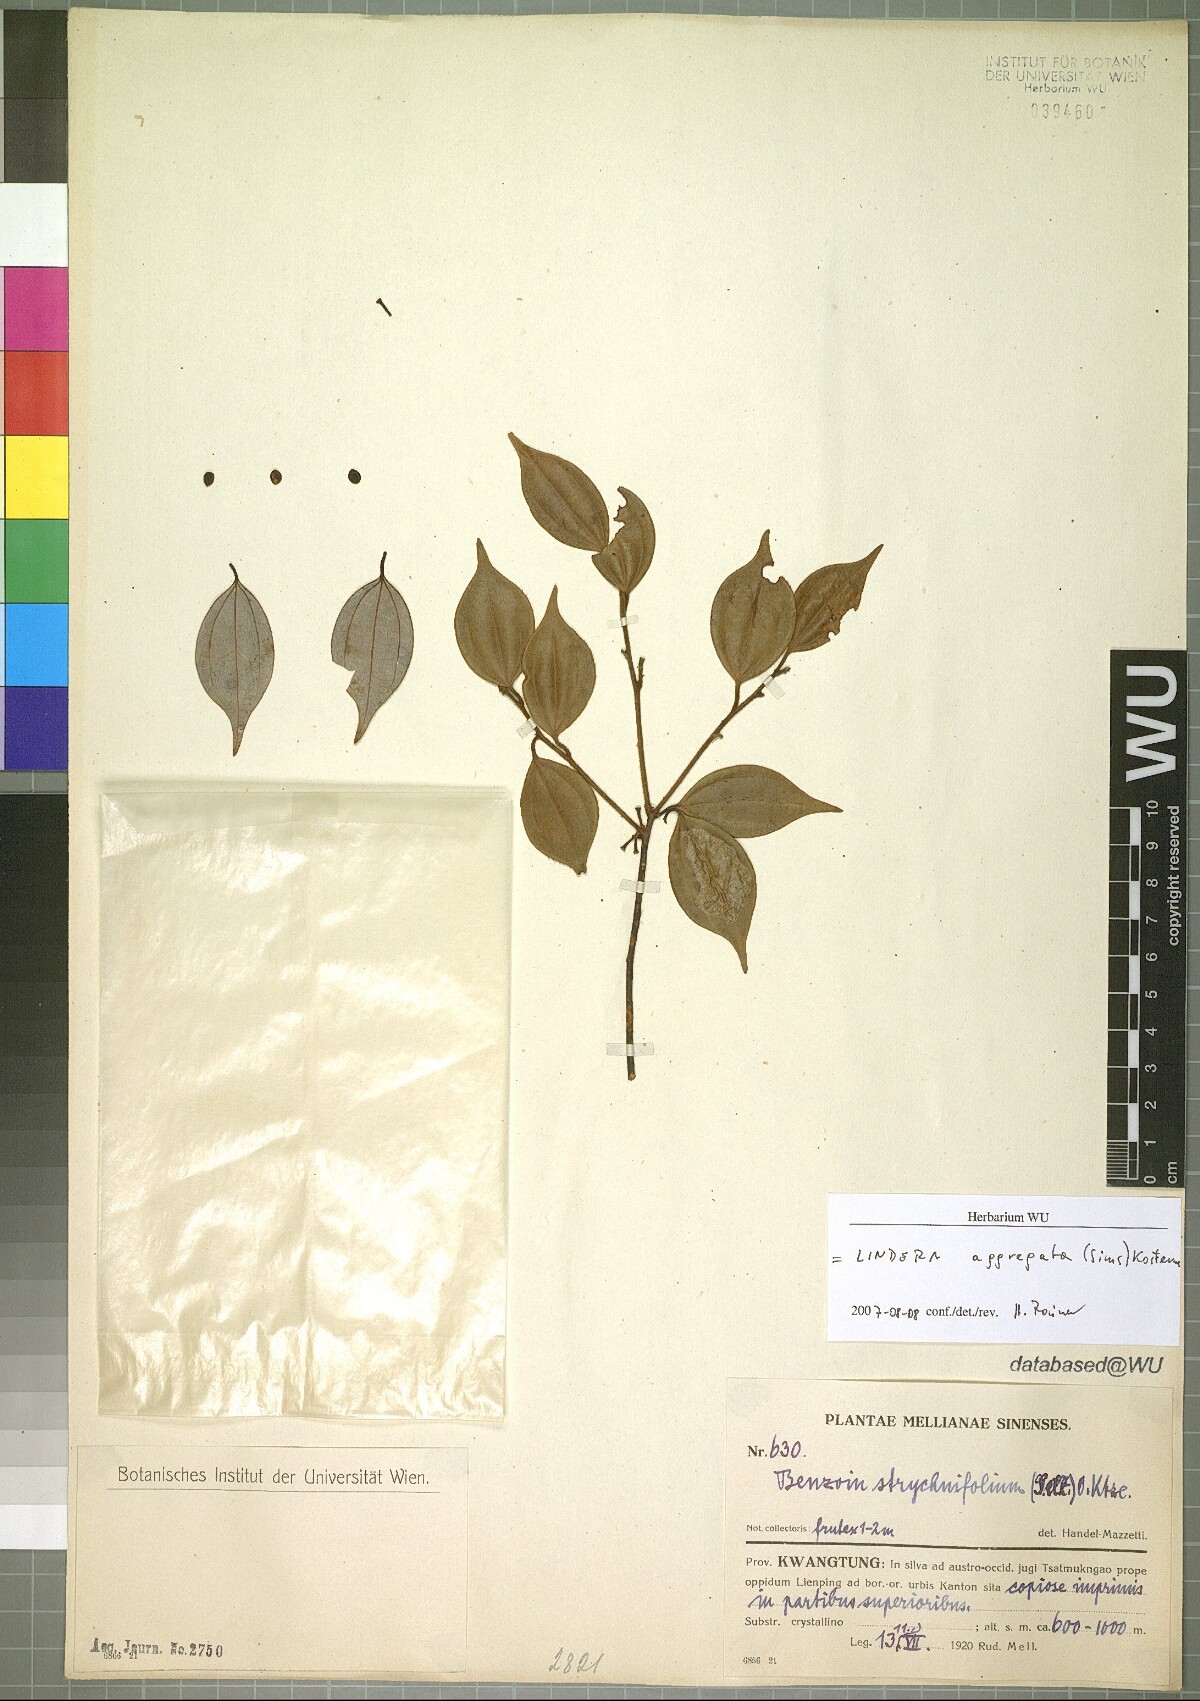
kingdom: Plantae
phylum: Tracheophyta
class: Magnoliopsida
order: Laurales
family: Lauraceae
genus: Lindera
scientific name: Lindera aggregata
